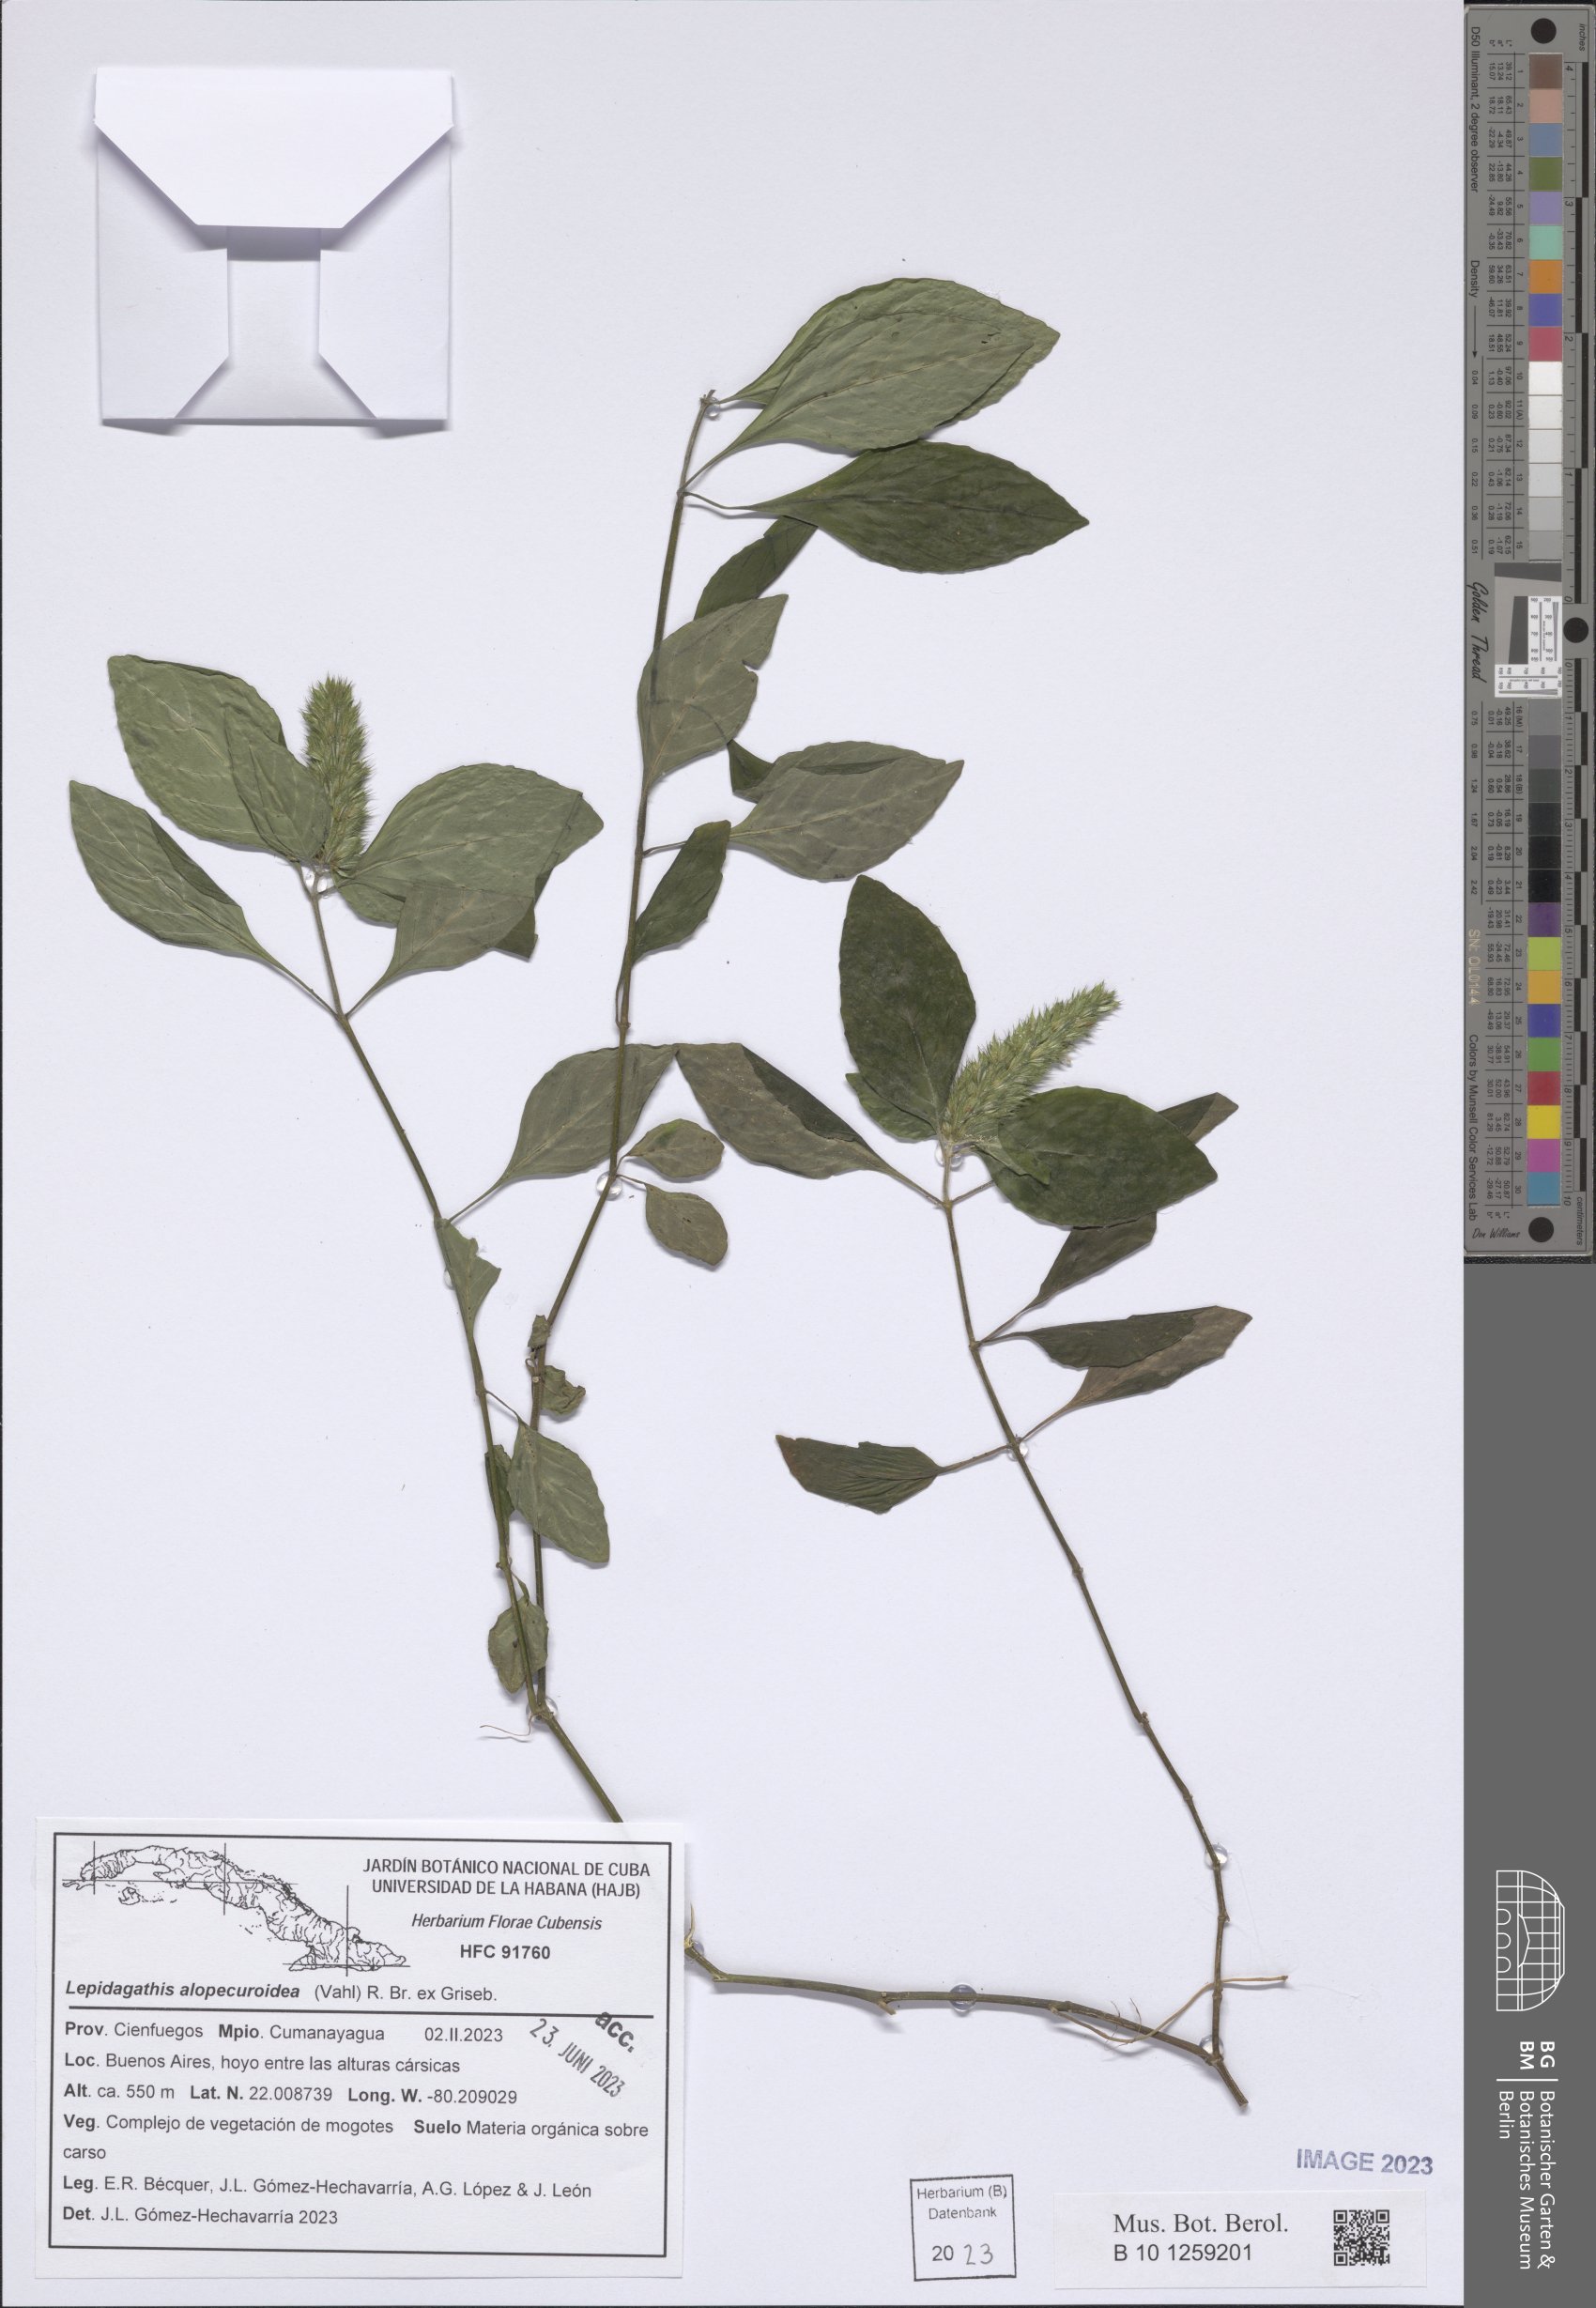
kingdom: Plantae
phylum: Tracheophyta
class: Magnoliopsida
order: Lamiales
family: Acanthaceae
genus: Lepidagathis
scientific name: Lepidagathis alopecuroidea
